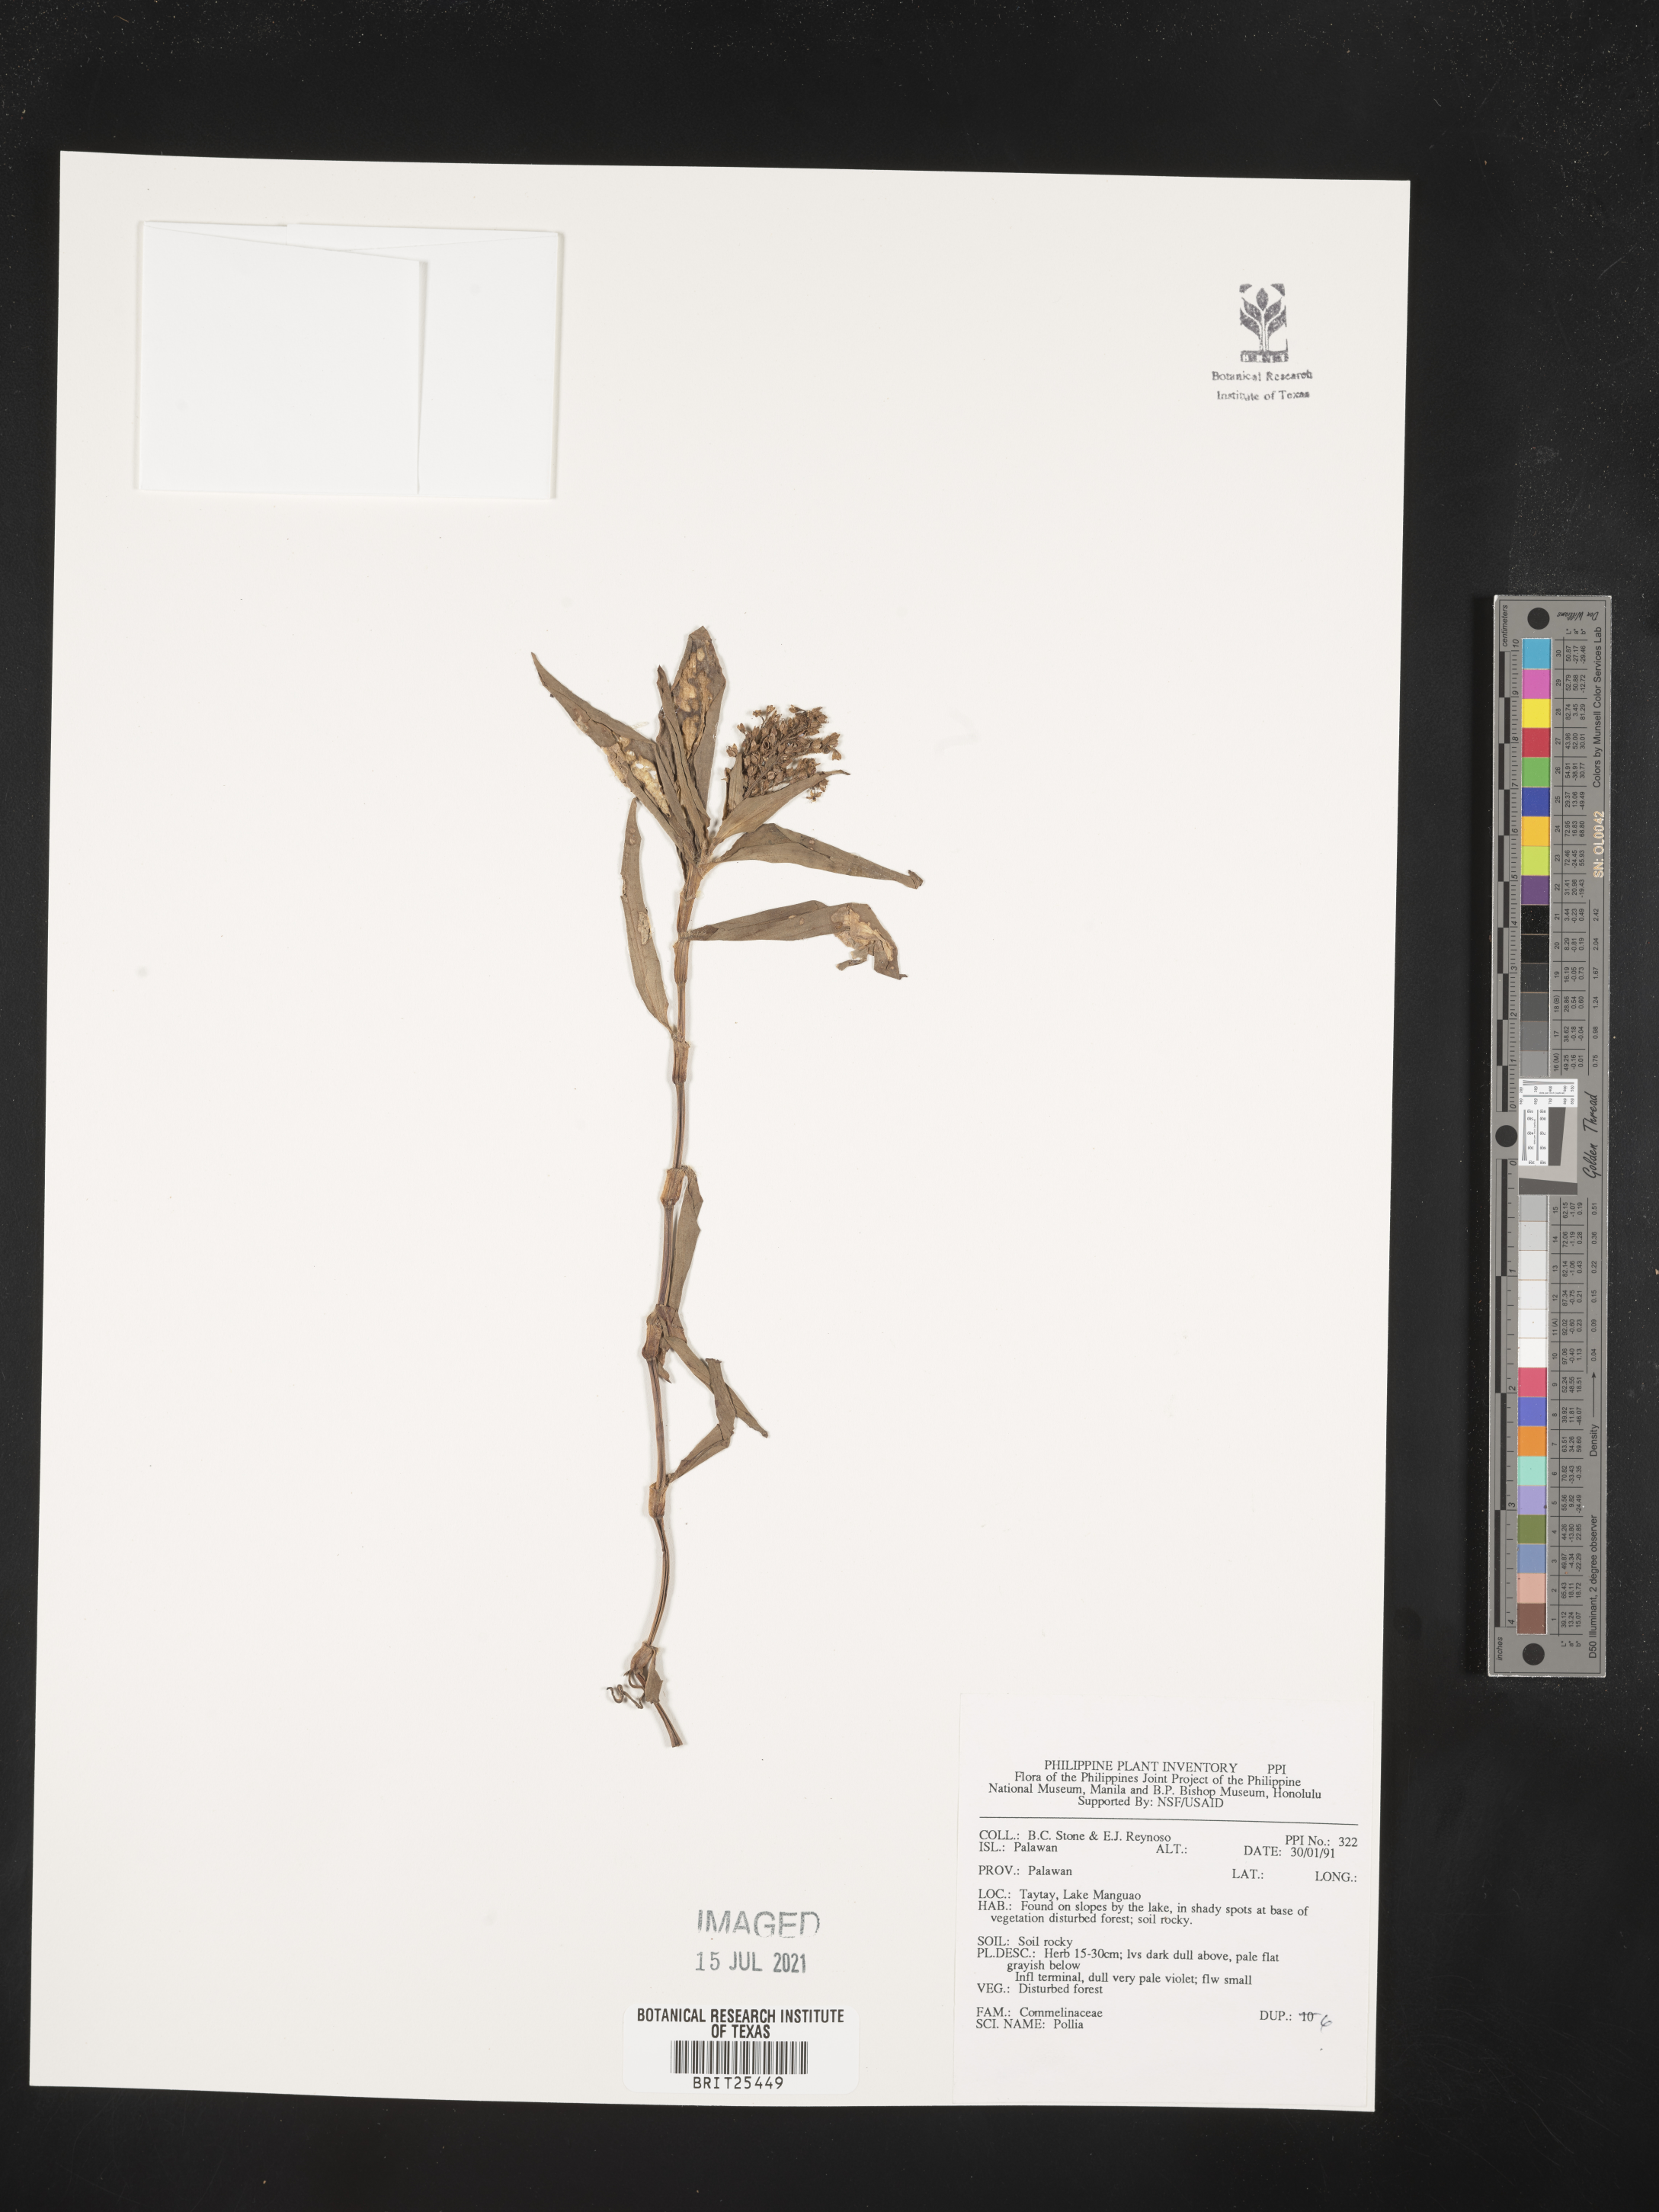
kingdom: Plantae
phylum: Tracheophyta
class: Liliopsida
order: Commelinales
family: Commelinaceae
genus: Pollia
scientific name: Pollia
